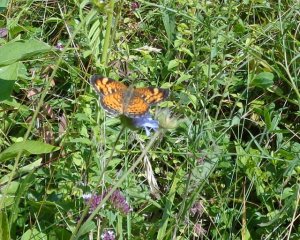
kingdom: Animalia
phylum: Arthropoda
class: Insecta
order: Lepidoptera
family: Nymphalidae
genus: Phyciodes
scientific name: Phyciodes tharos
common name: Pearl Crescent
